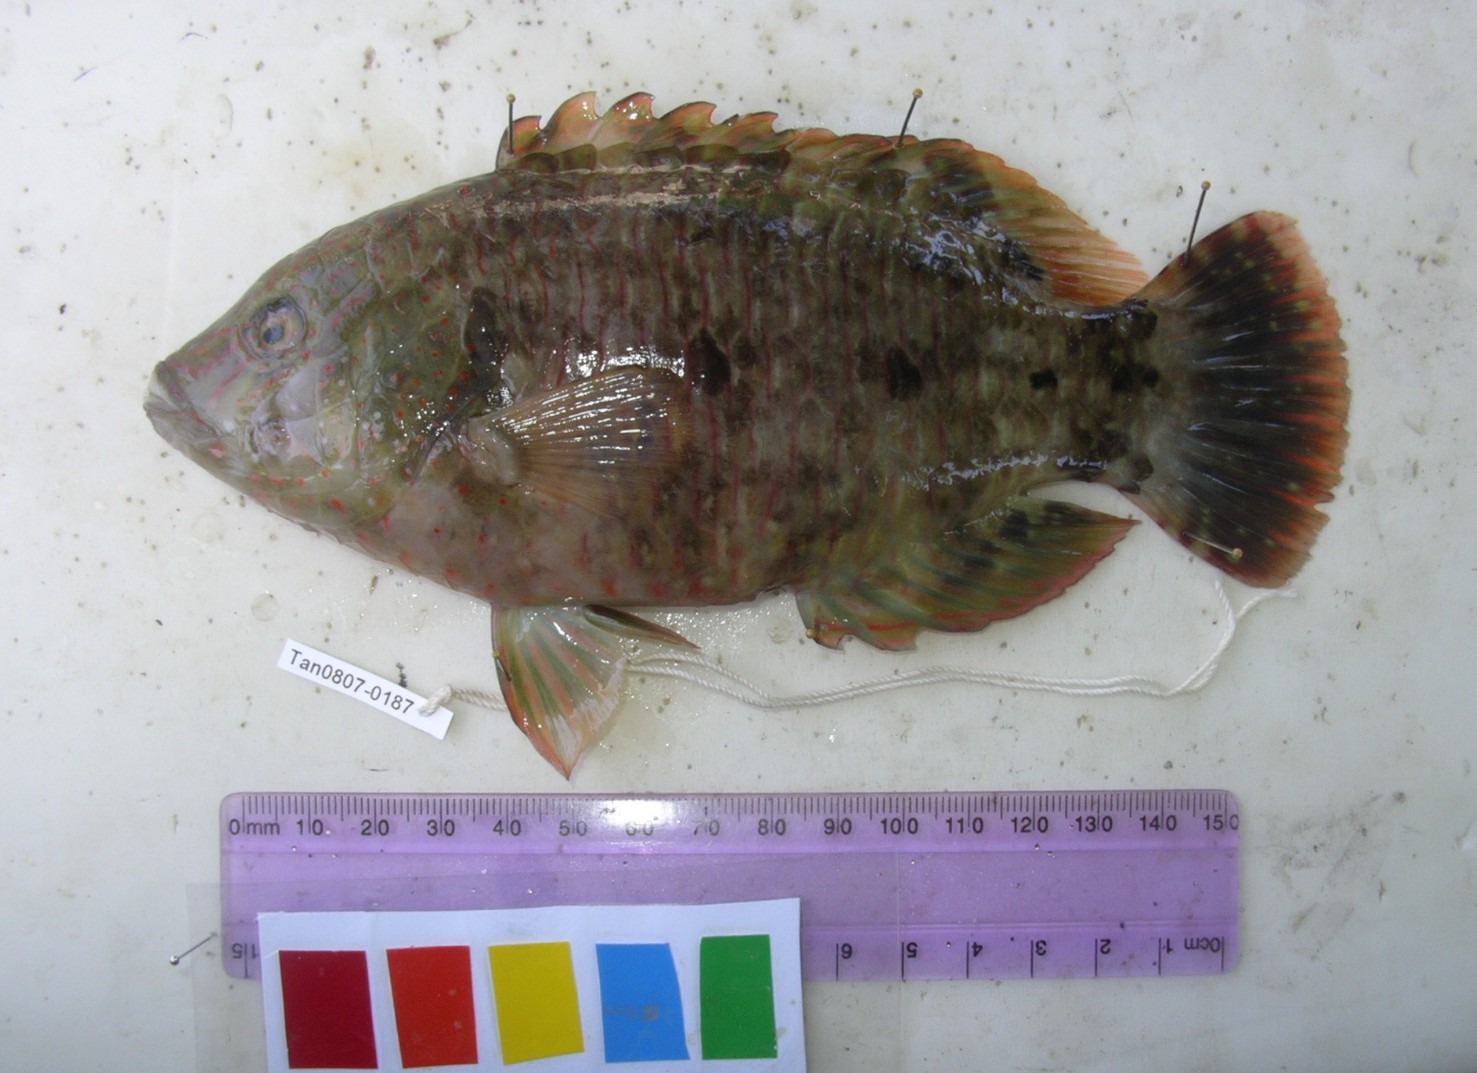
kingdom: Animalia
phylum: Chordata
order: Perciformes
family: Labridae
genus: Cheilinus
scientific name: Cheilinus trilobatus
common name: Tripletail maori wrasse
